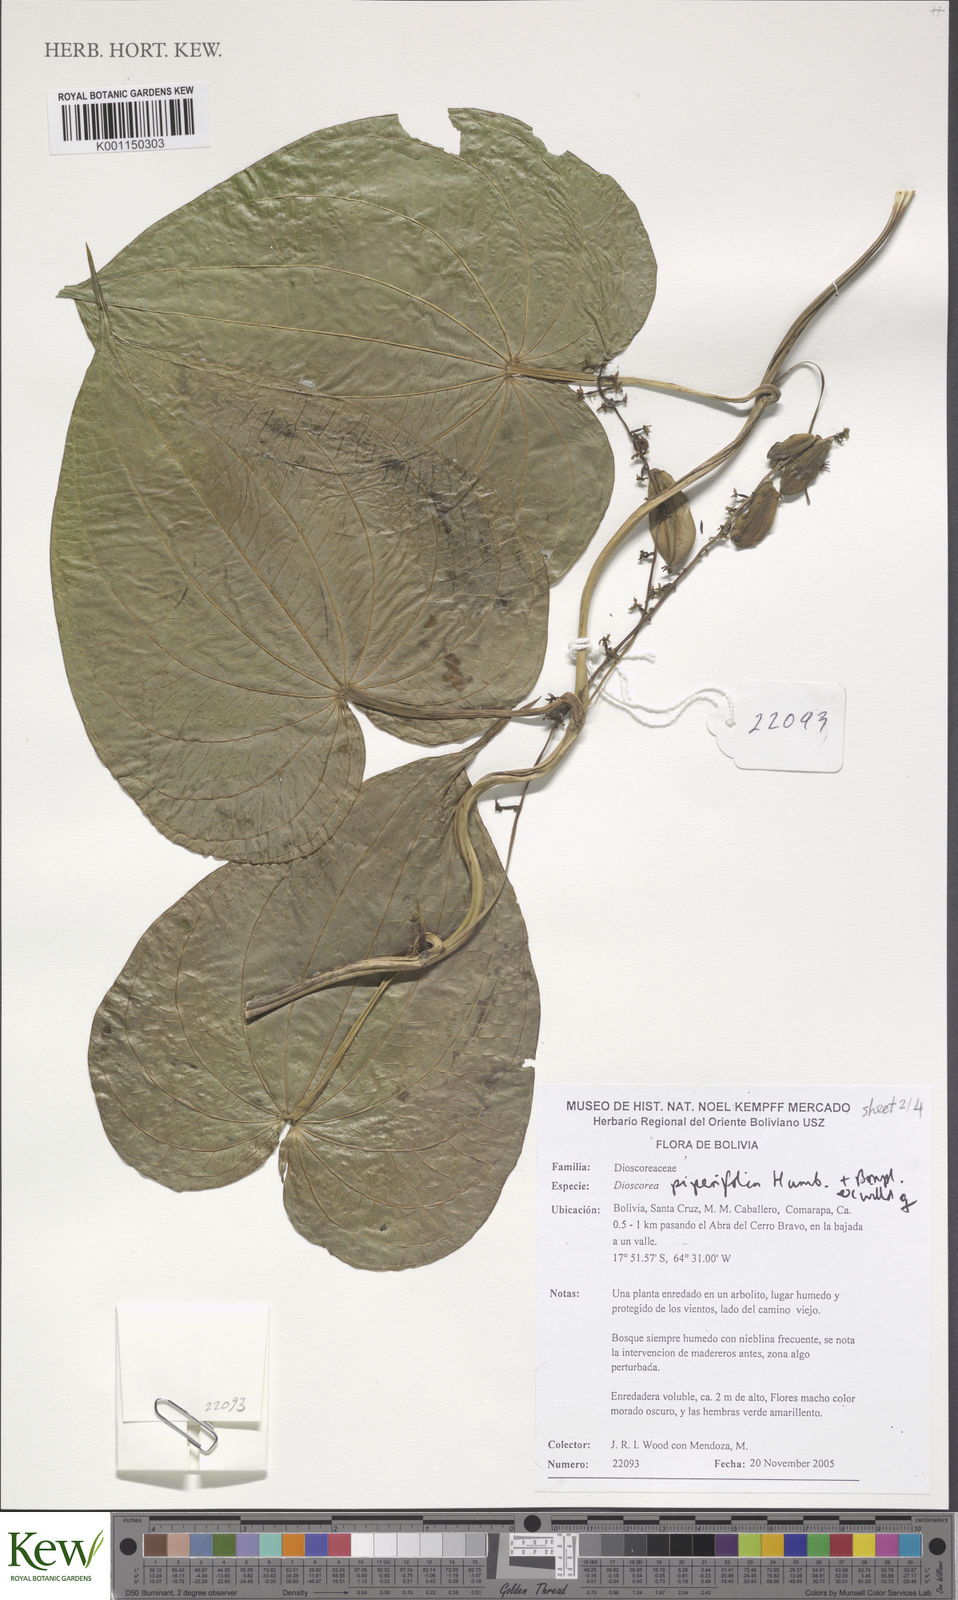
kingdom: Plantae
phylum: Tracheophyta
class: Liliopsida
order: Dioscoreales
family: Dioscoreaceae
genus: Dioscorea
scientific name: Dioscorea piperifolia
